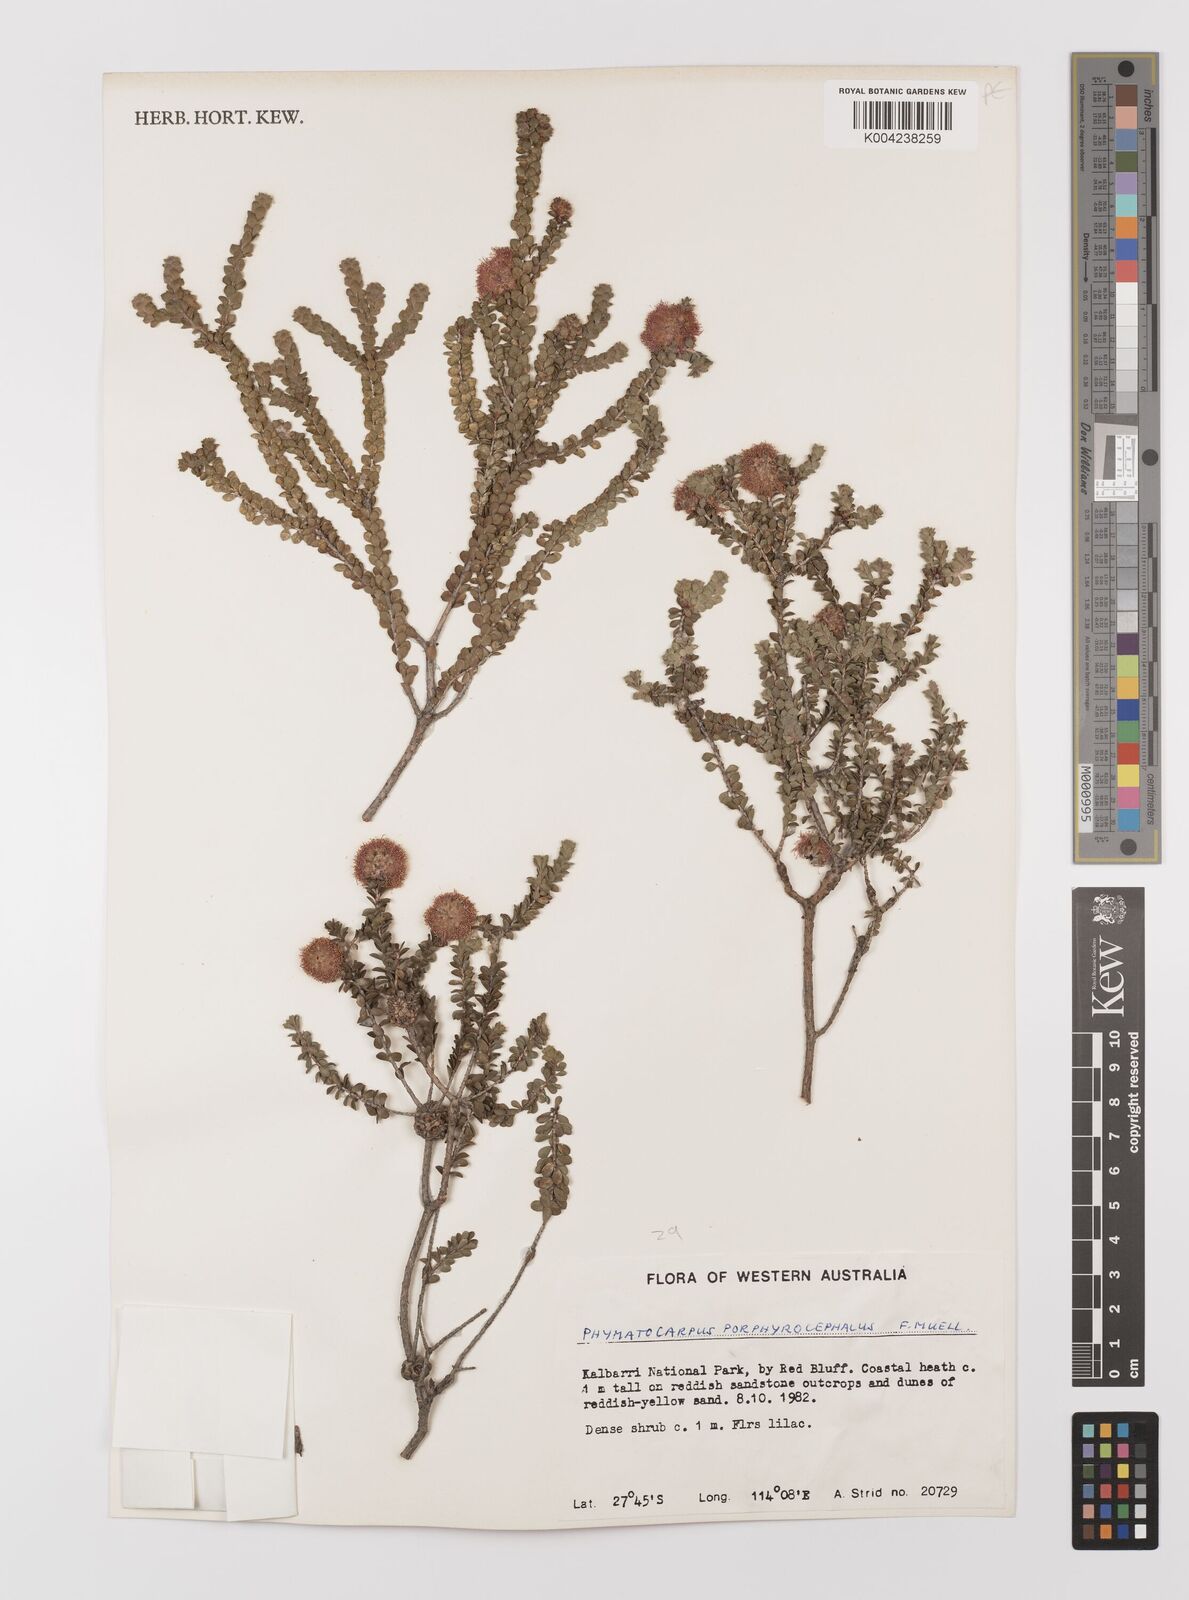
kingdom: Plantae
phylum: Tracheophyta
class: Magnoliopsida
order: Myrtales
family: Myrtaceae
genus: Melaleuca
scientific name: Melaleuca porphyrocephala
